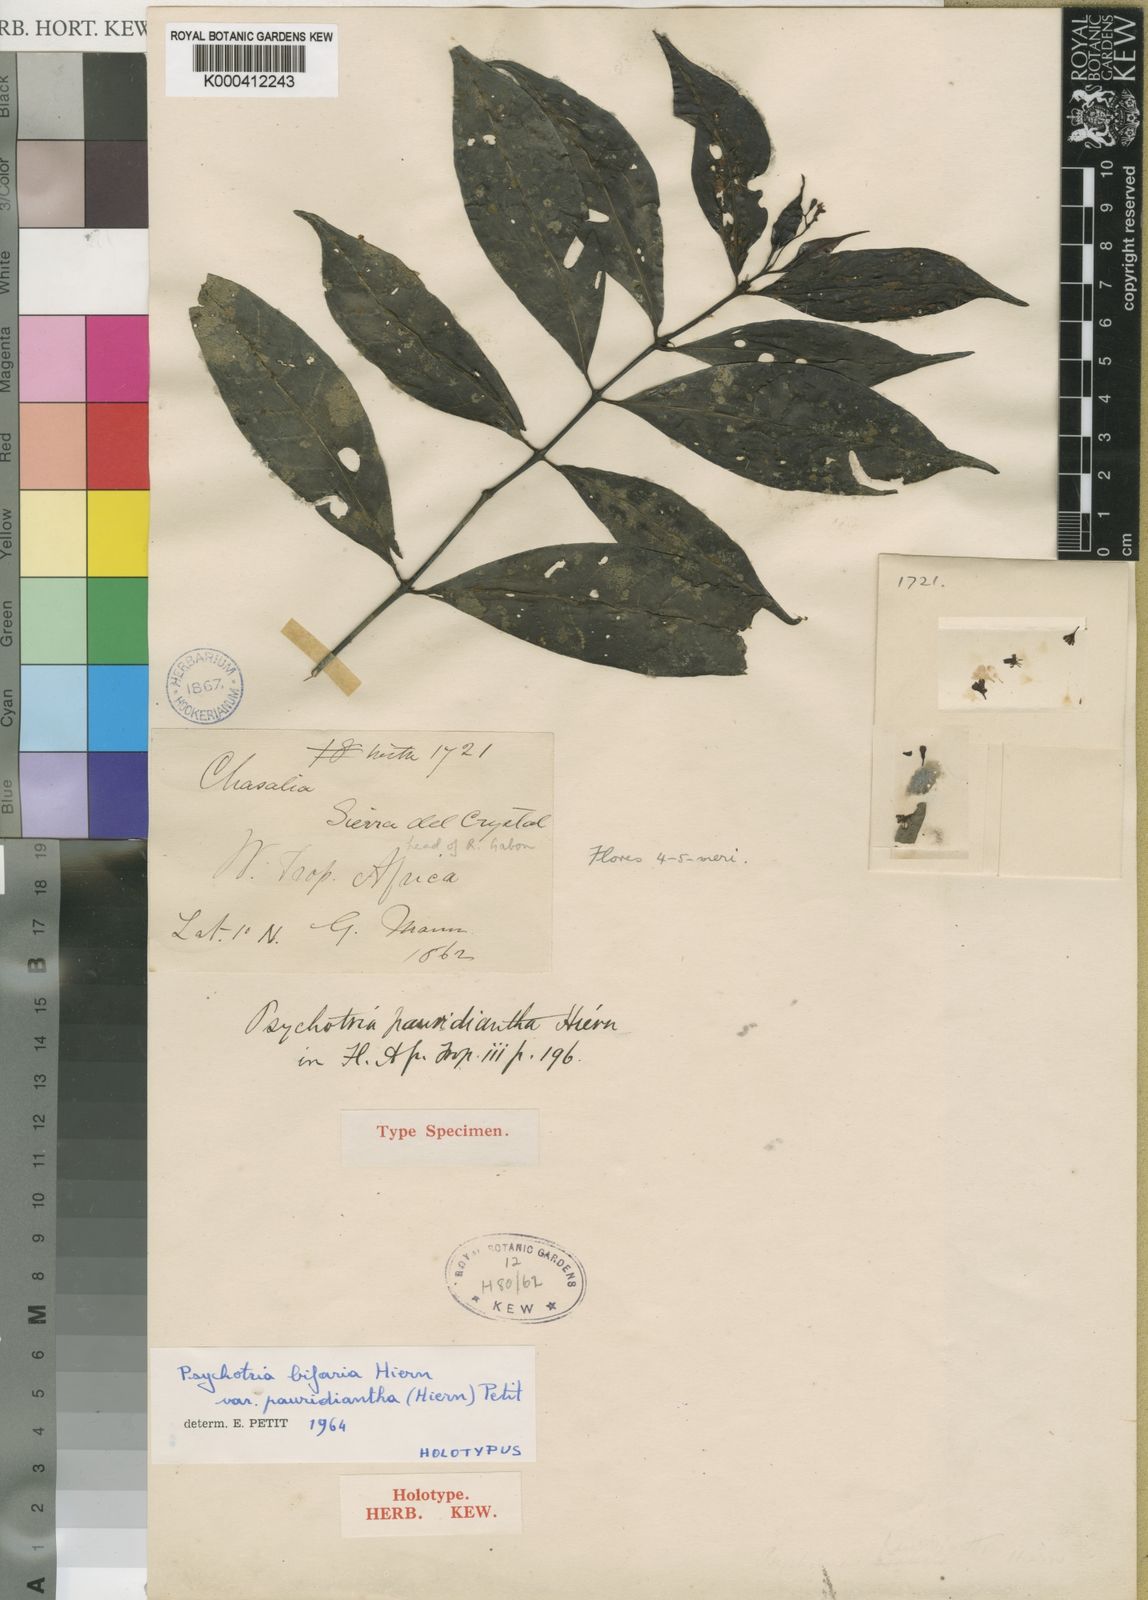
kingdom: Plantae
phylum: Tracheophyta
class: Magnoliopsida
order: Gentianales
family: Rubiaceae
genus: Psychotria
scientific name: Psychotria bifaria
